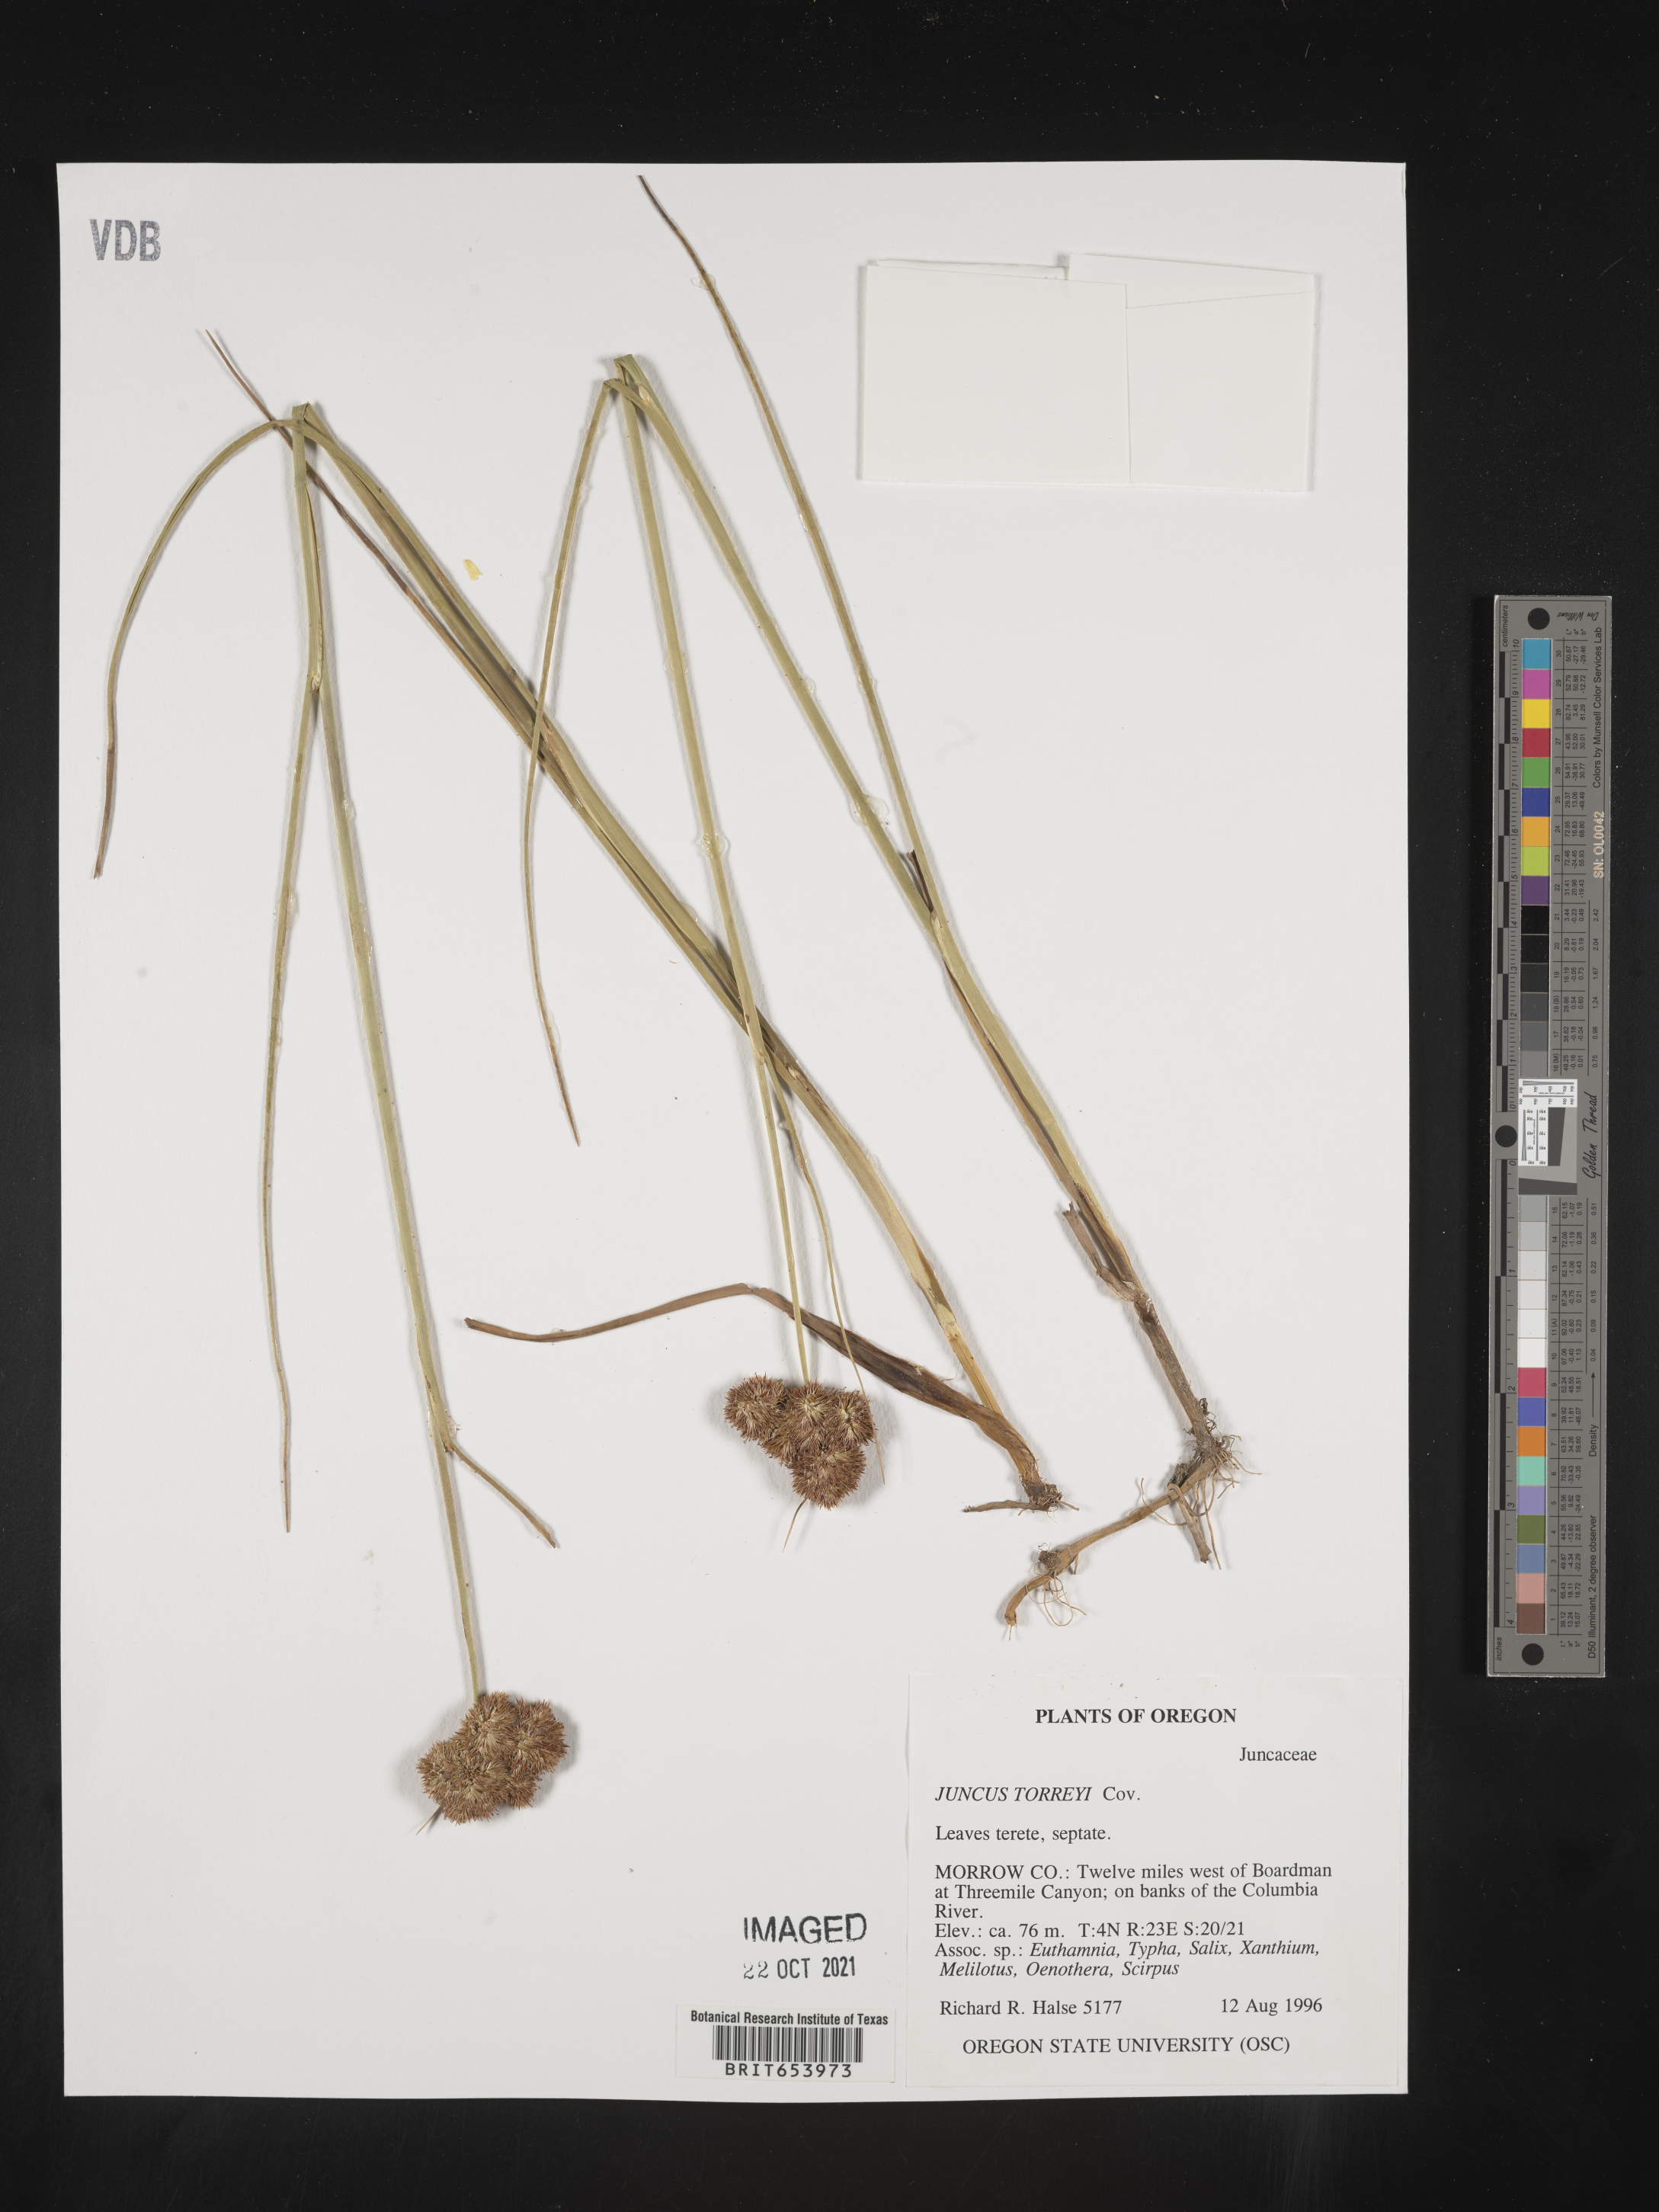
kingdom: Plantae
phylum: Tracheophyta
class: Liliopsida
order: Poales
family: Juncaceae
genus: Juncus
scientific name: Juncus torreyi
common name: Torrey's rush
